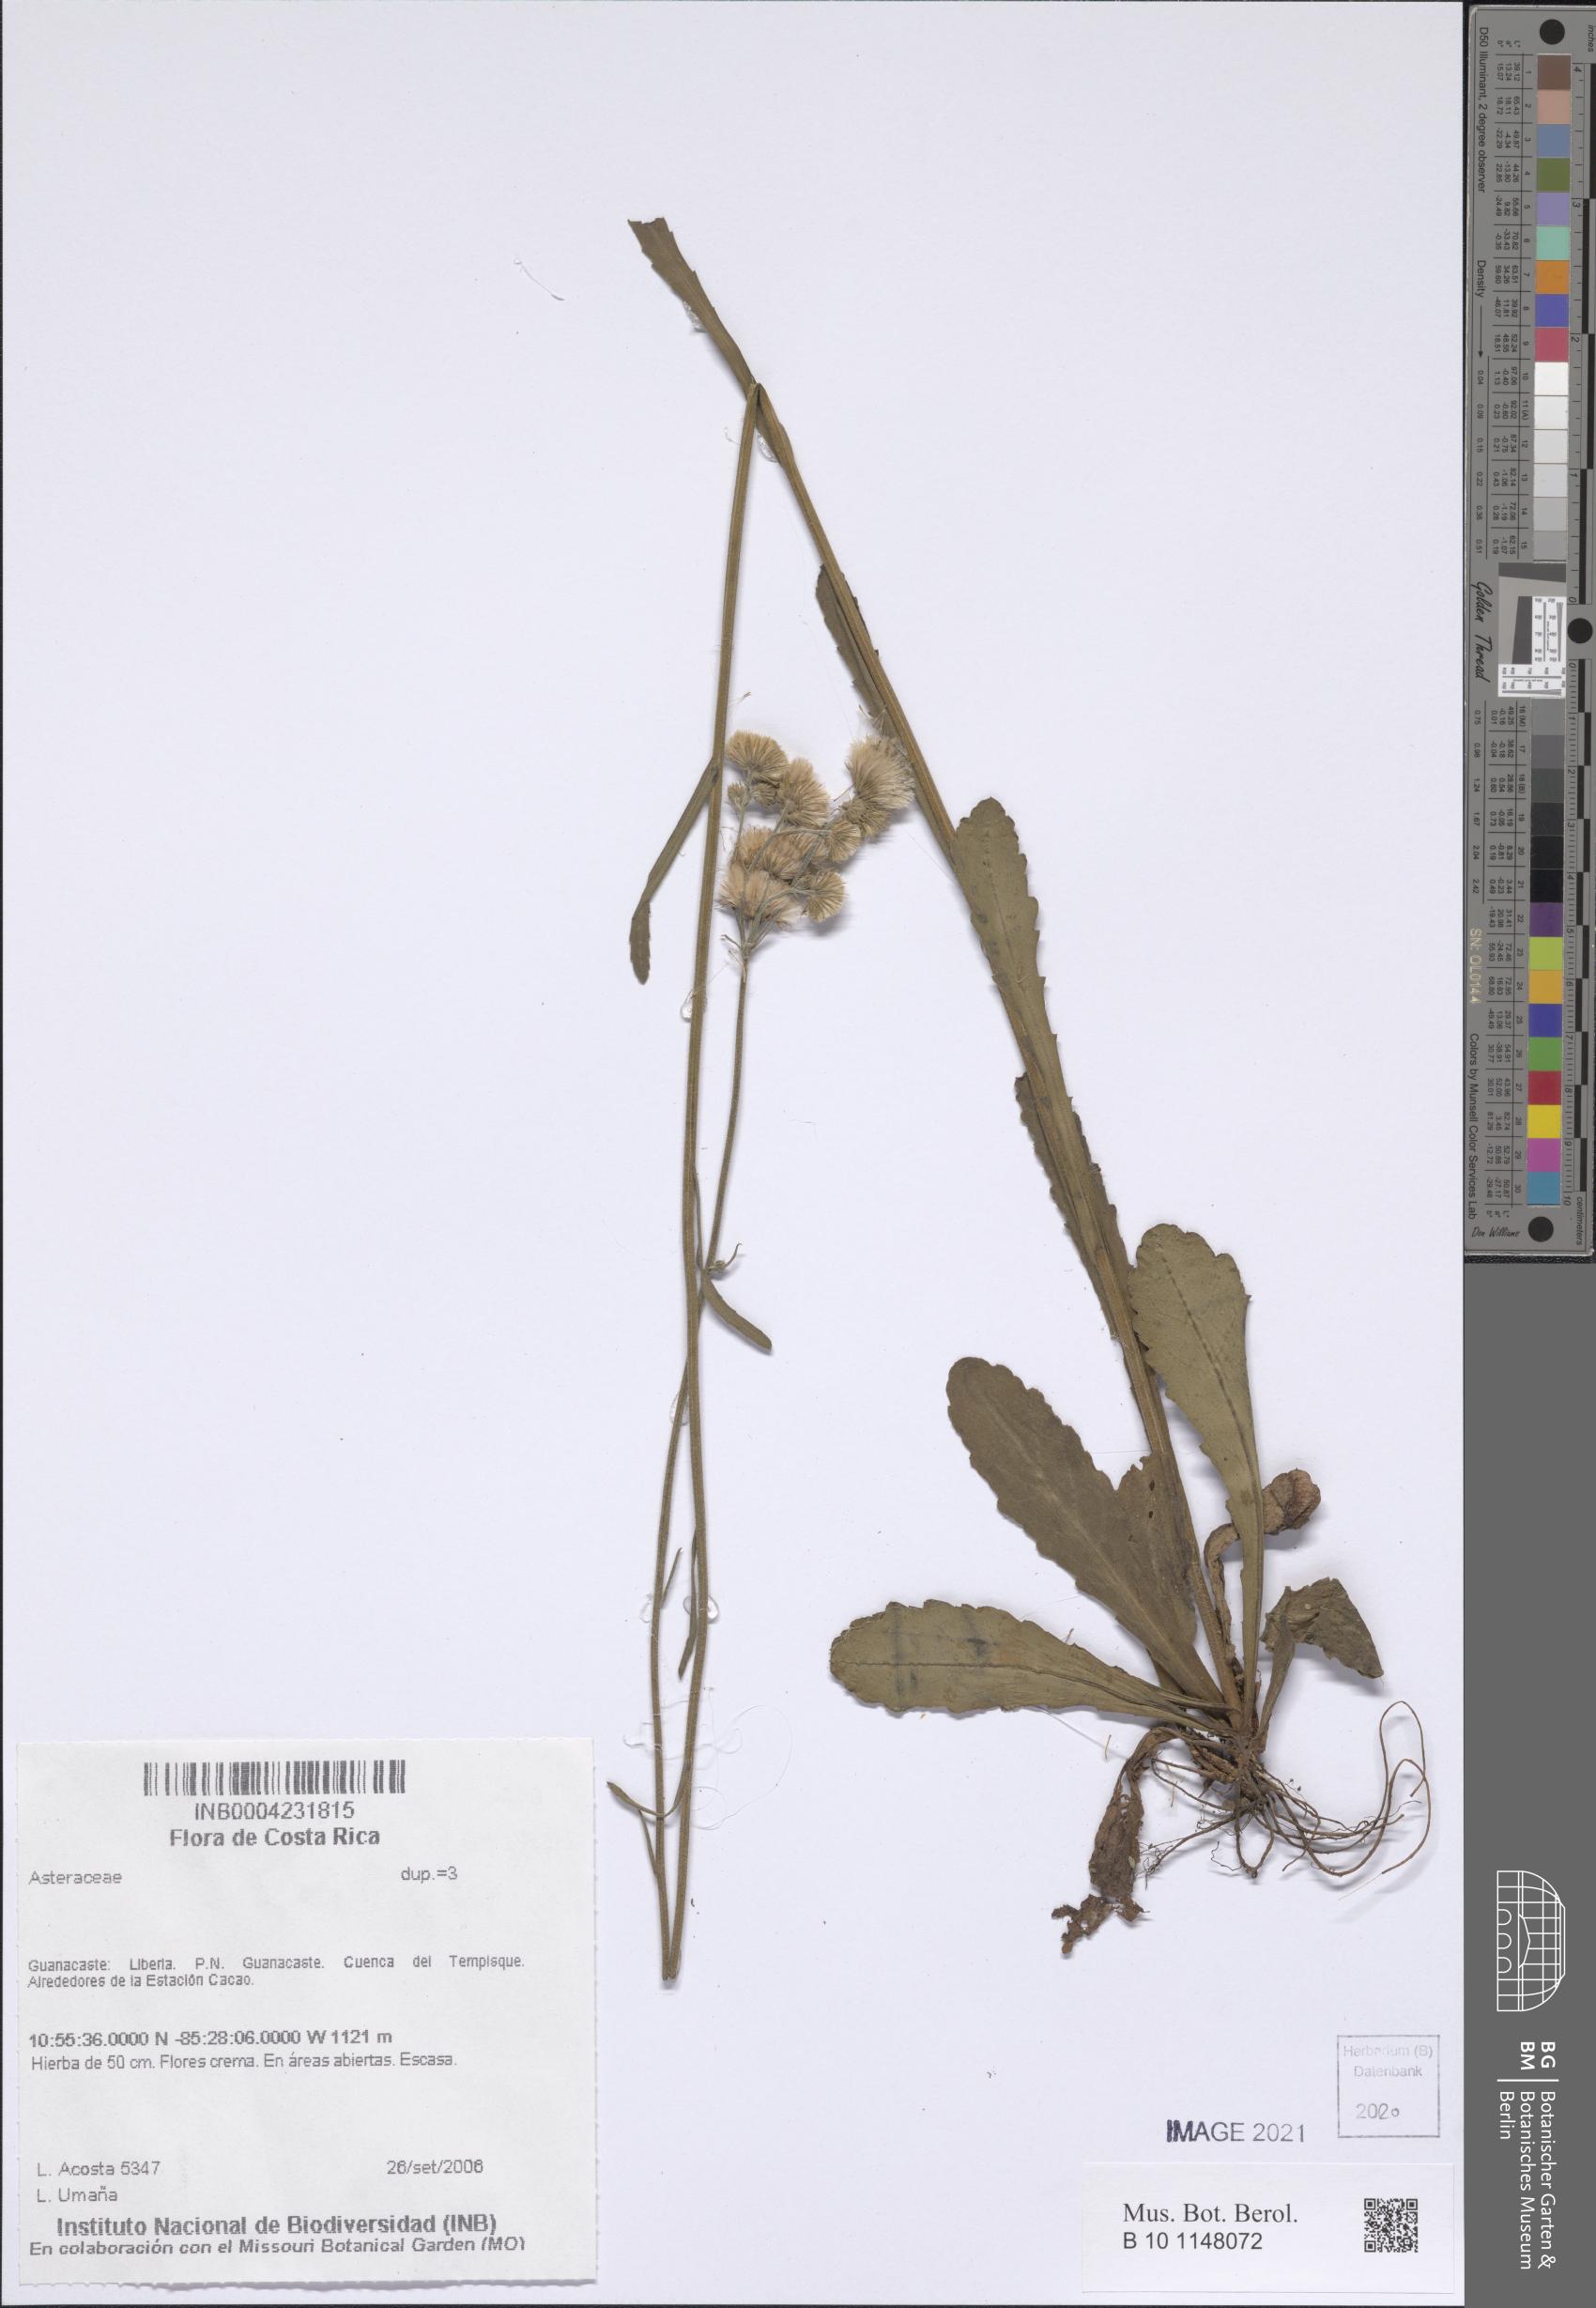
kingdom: Plantae
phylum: Tracheophyta
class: Magnoliopsida
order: Asterales
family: Asteraceae
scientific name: Asteraceae
